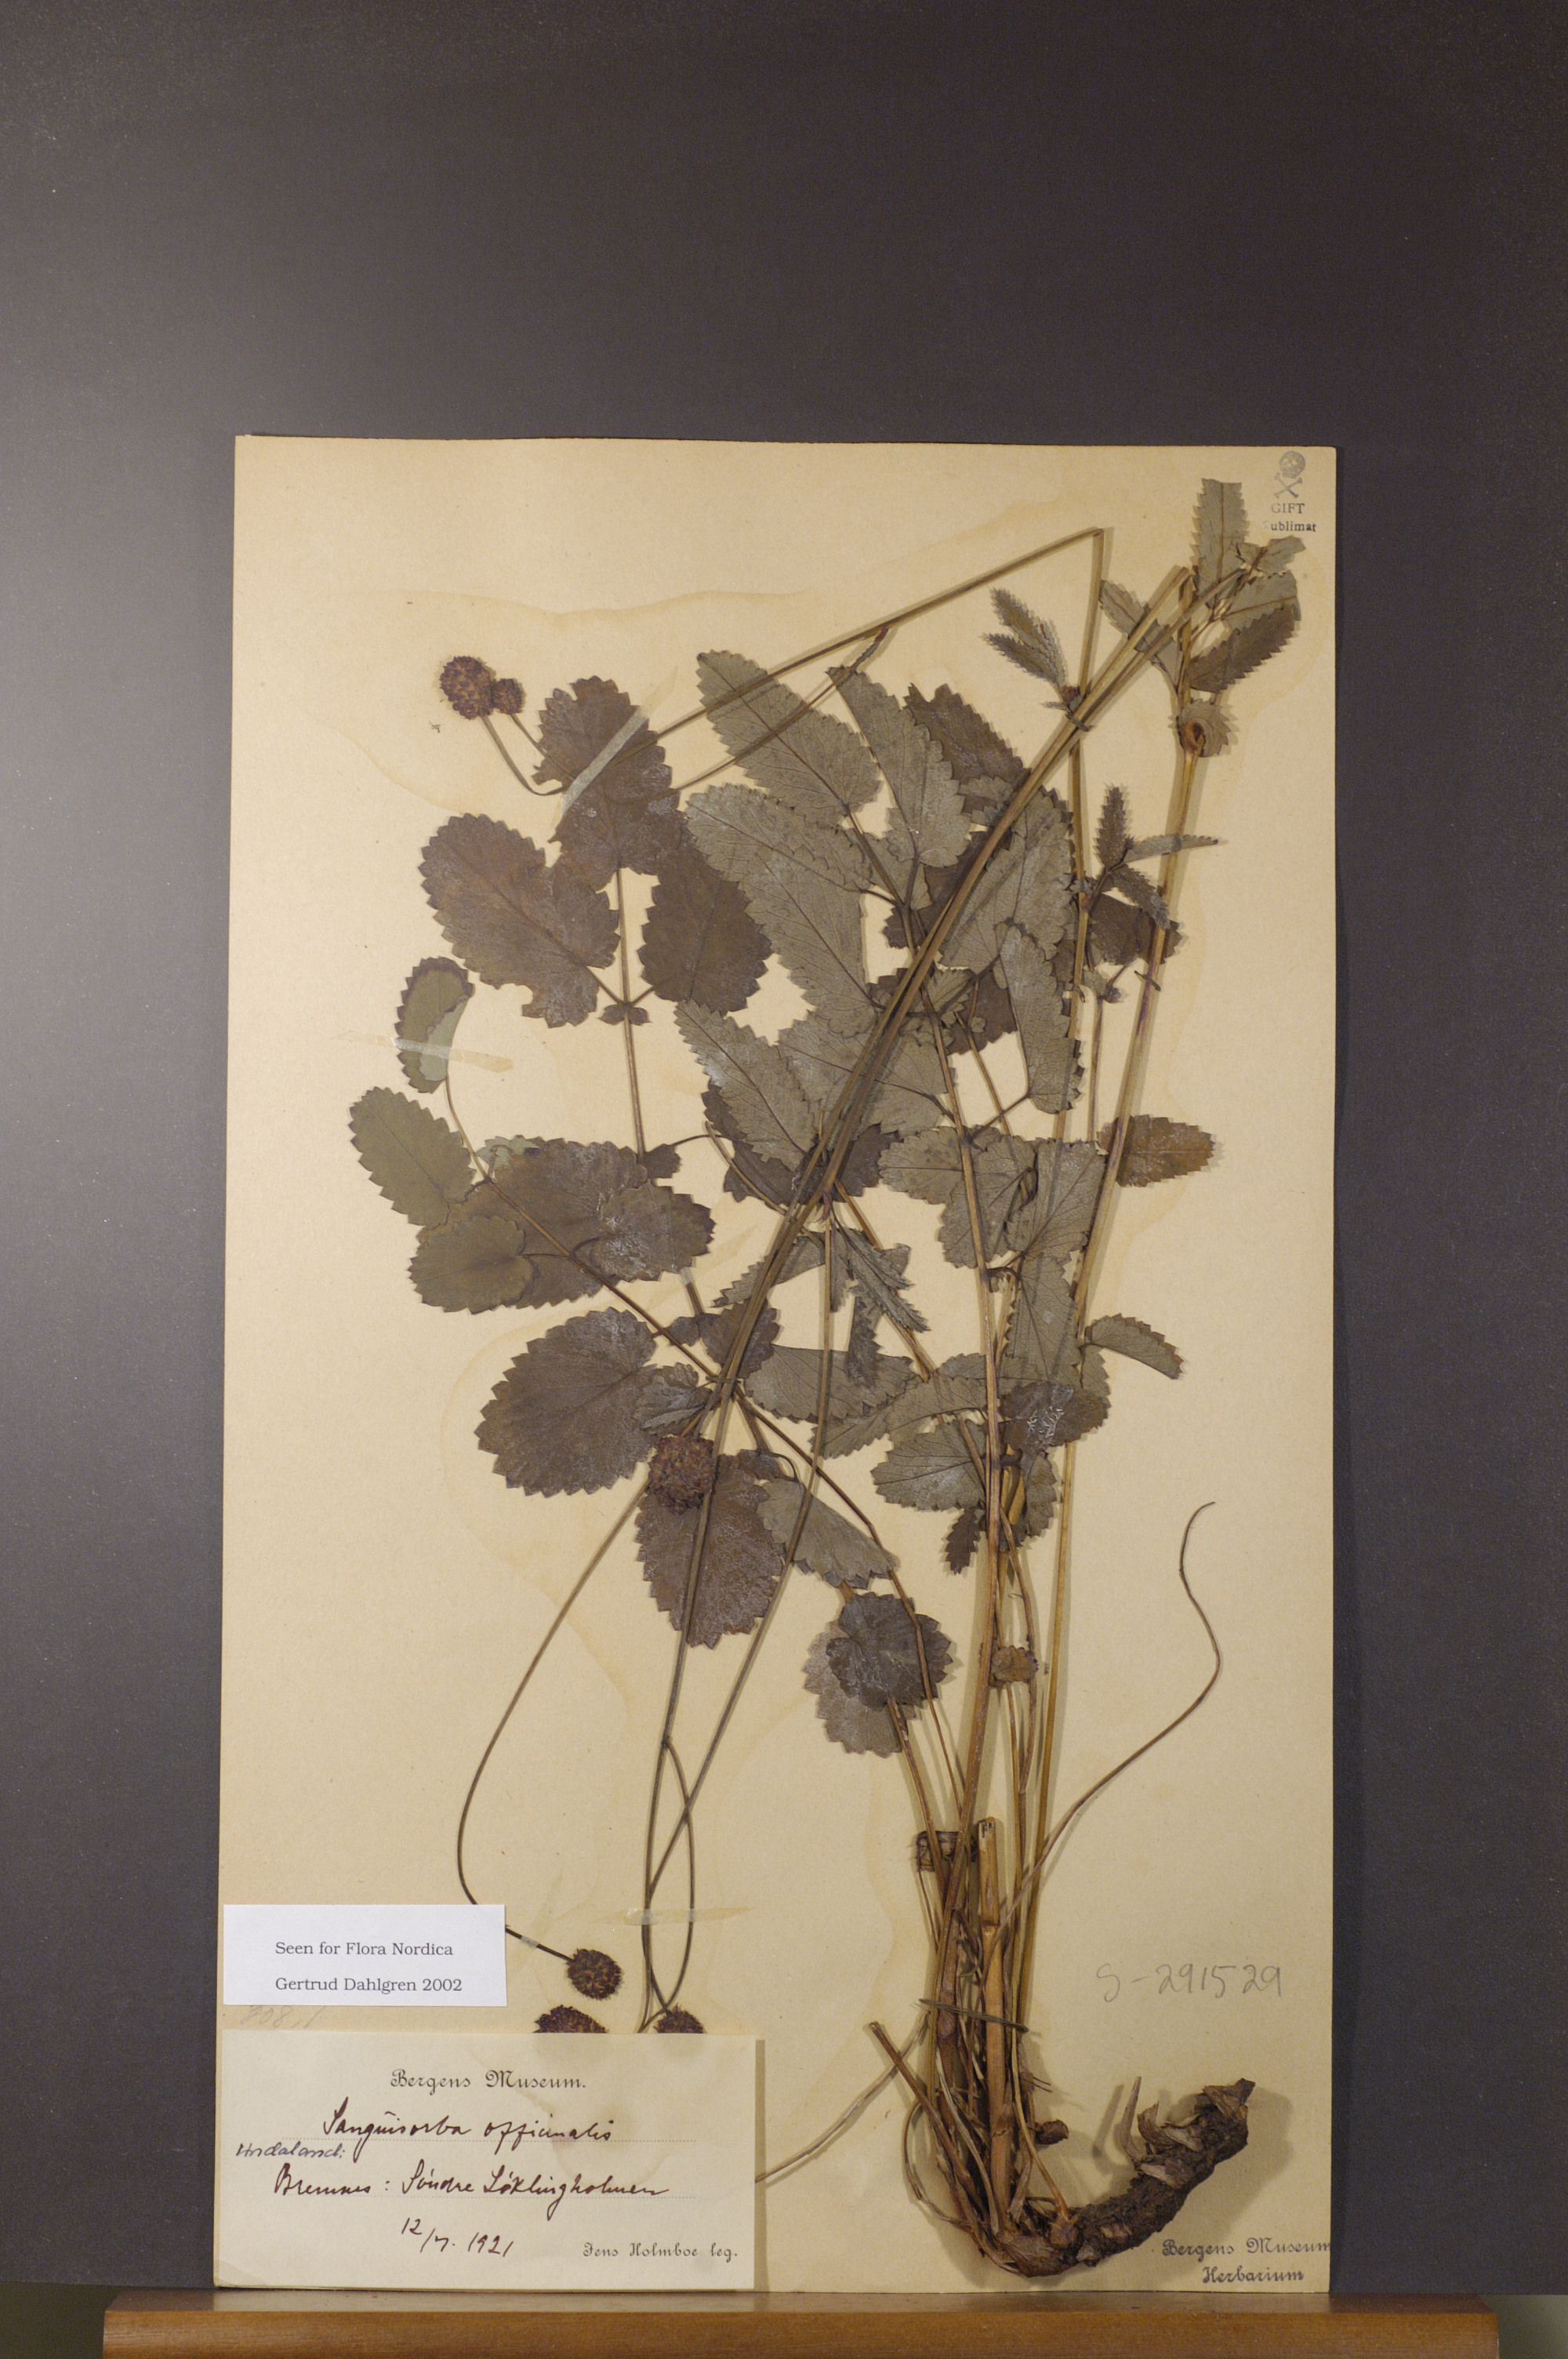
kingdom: Plantae
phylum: Tracheophyta
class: Magnoliopsida
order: Rosales
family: Rosaceae
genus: Sanguisorba
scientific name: Sanguisorba officinalis
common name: Great burnet
